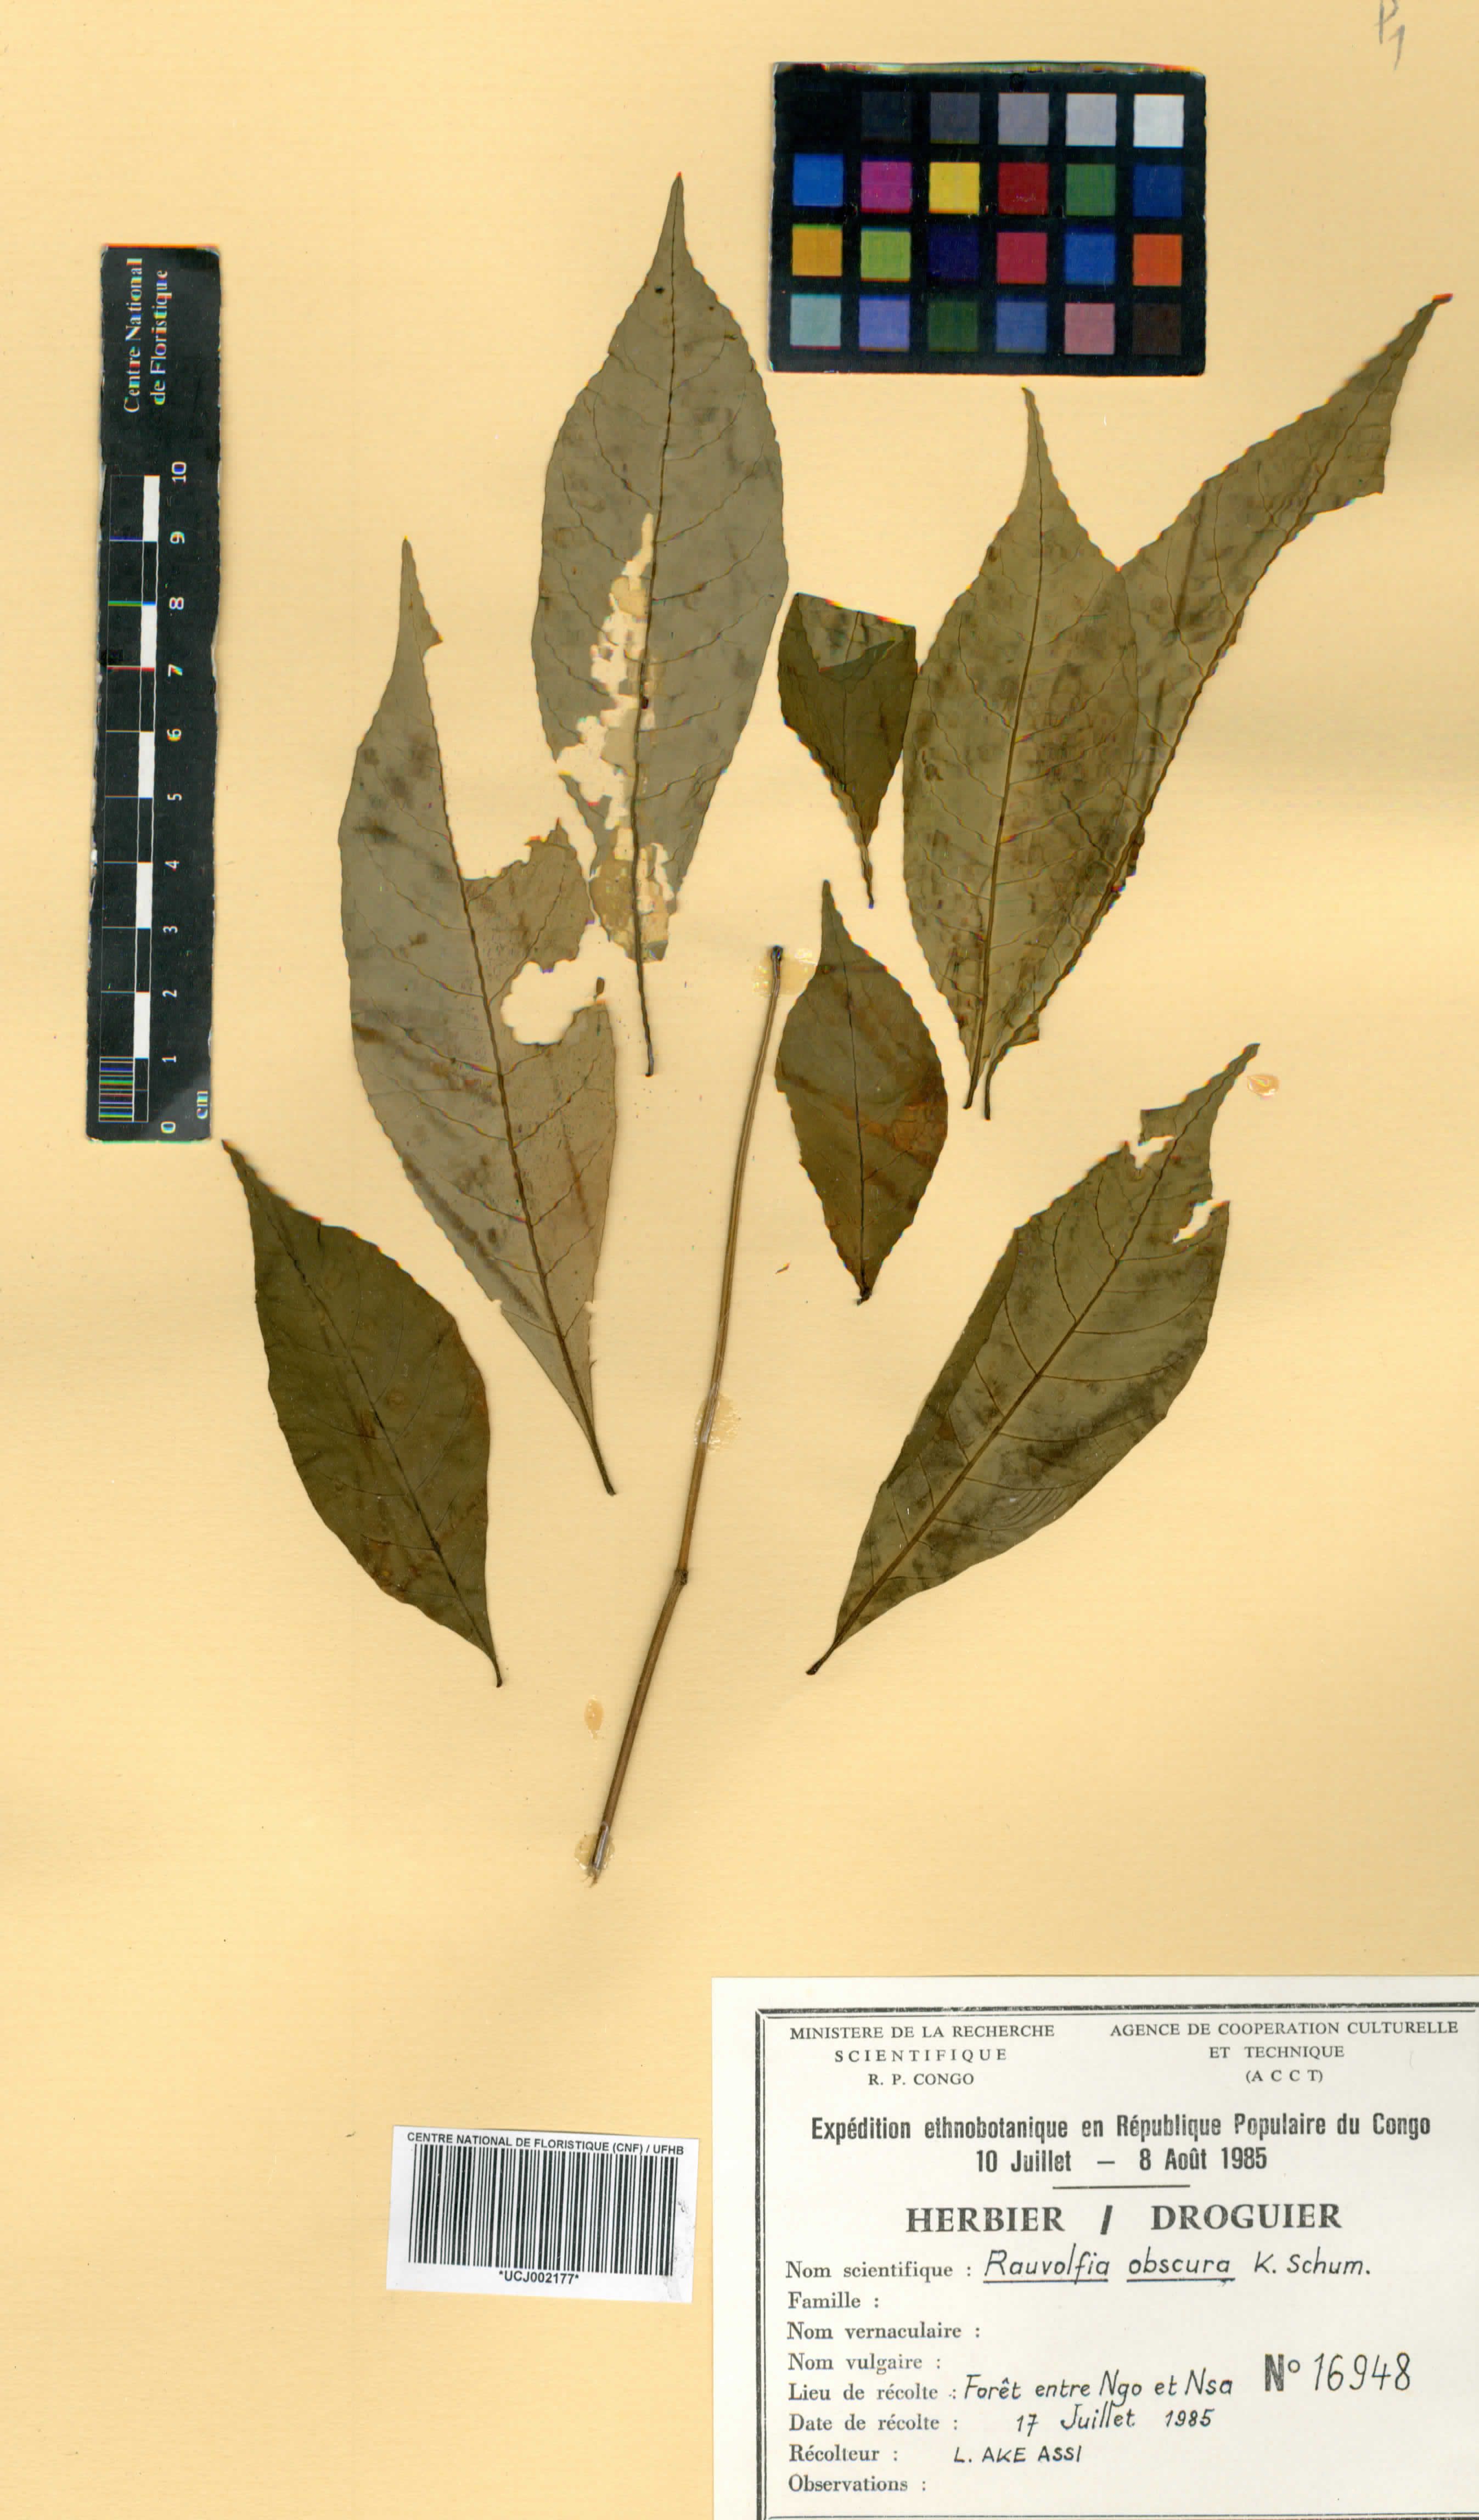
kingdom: Plantae
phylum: Tracheophyta
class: Magnoliopsida
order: Gentianales
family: Apocynaceae
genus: Rauvolfia
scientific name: Rauvolfia mannii
